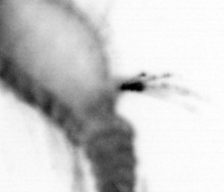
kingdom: Animalia
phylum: Annelida
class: Polychaeta
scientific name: Polychaeta
